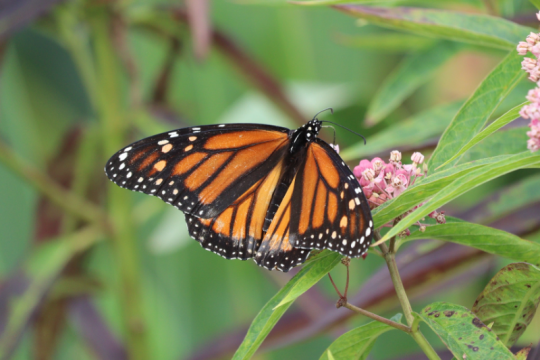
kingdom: Animalia
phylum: Arthropoda
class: Insecta
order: Lepidoptera
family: Nymphalidae
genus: Danaus
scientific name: Danaus plexippus
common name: Monarch
